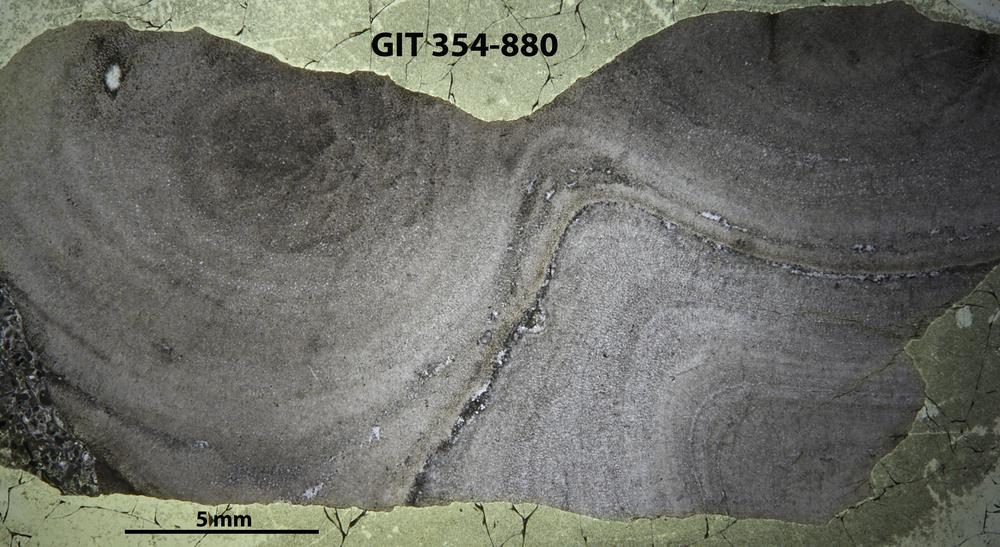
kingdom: Animalia
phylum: Porifera
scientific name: Porifera
